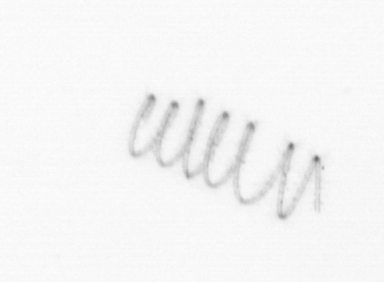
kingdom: Chromista
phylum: Ochrophyta
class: Bacillariophyceae
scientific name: Bacillariophyceae
